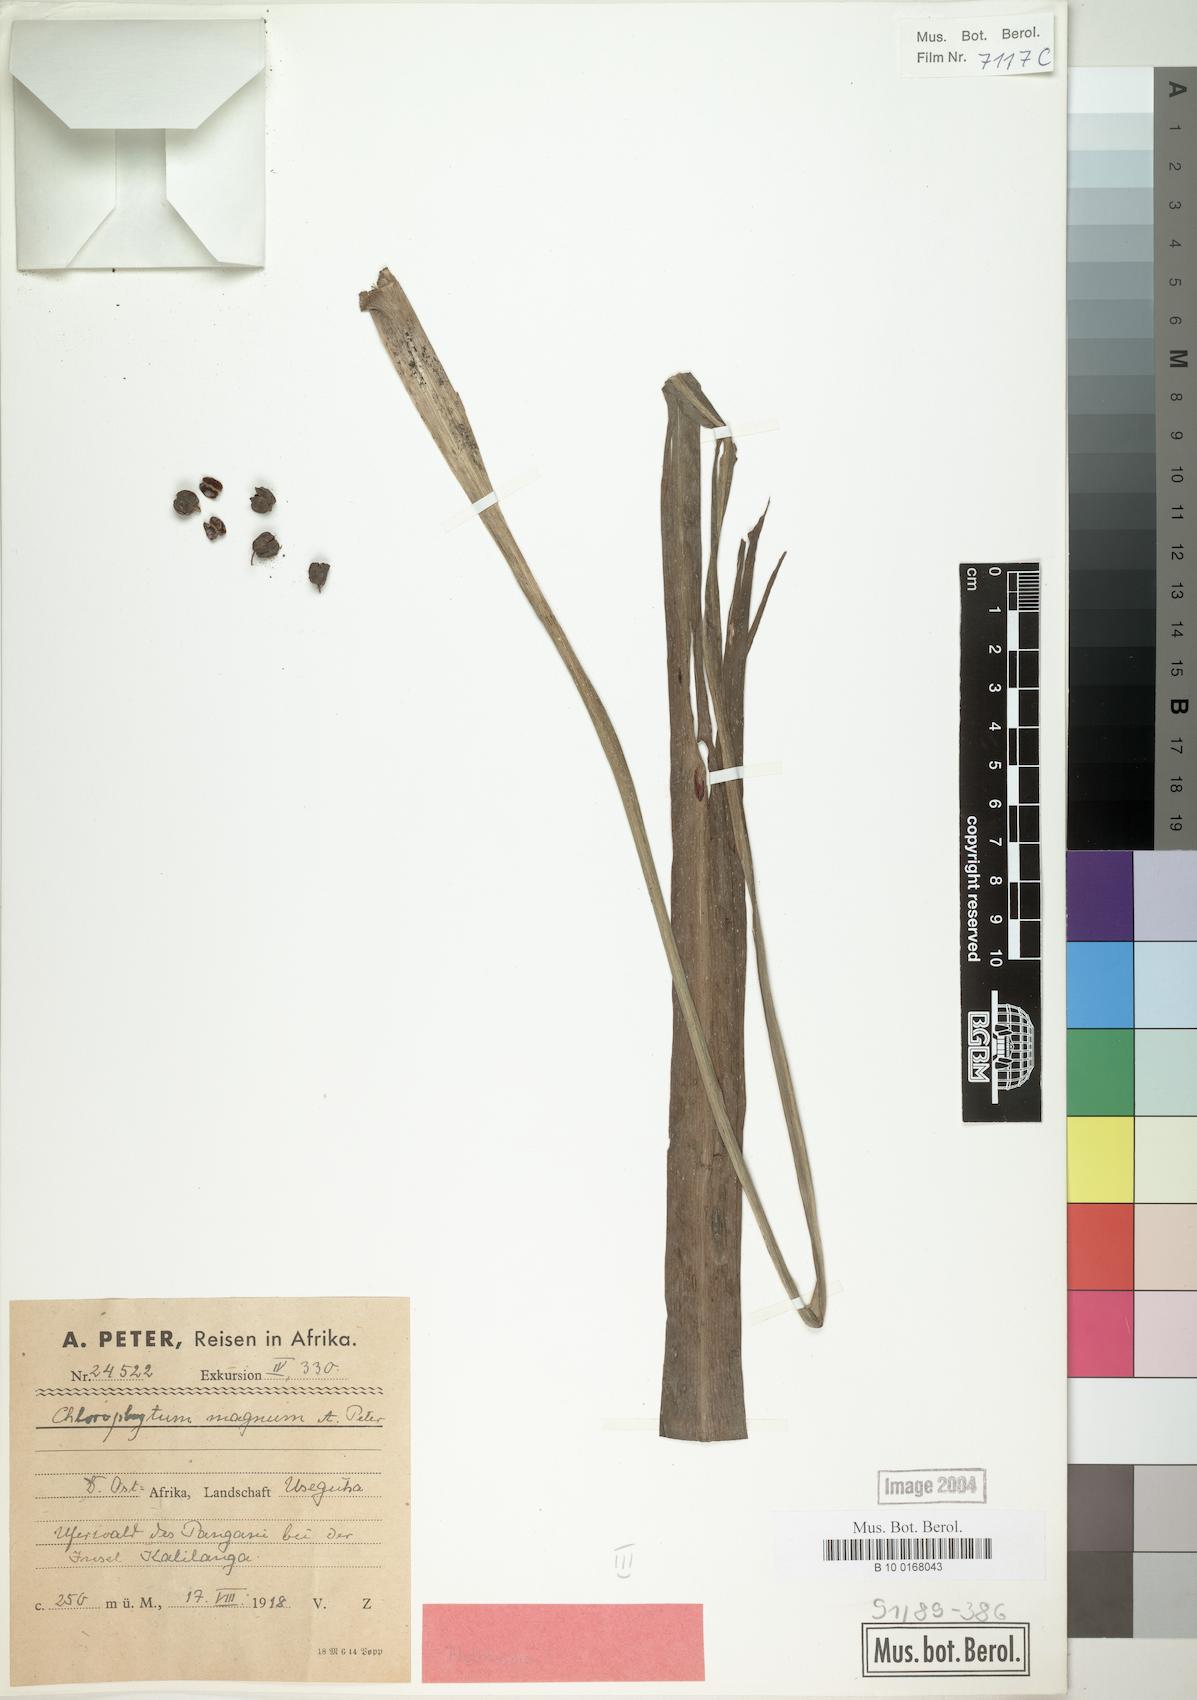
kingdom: Plantae
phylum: Tracheophyta
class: Liliopsida
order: Asparagales
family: Asparagaceae
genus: Chlorophytum
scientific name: Chlorophytum comosum
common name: Spider plant
